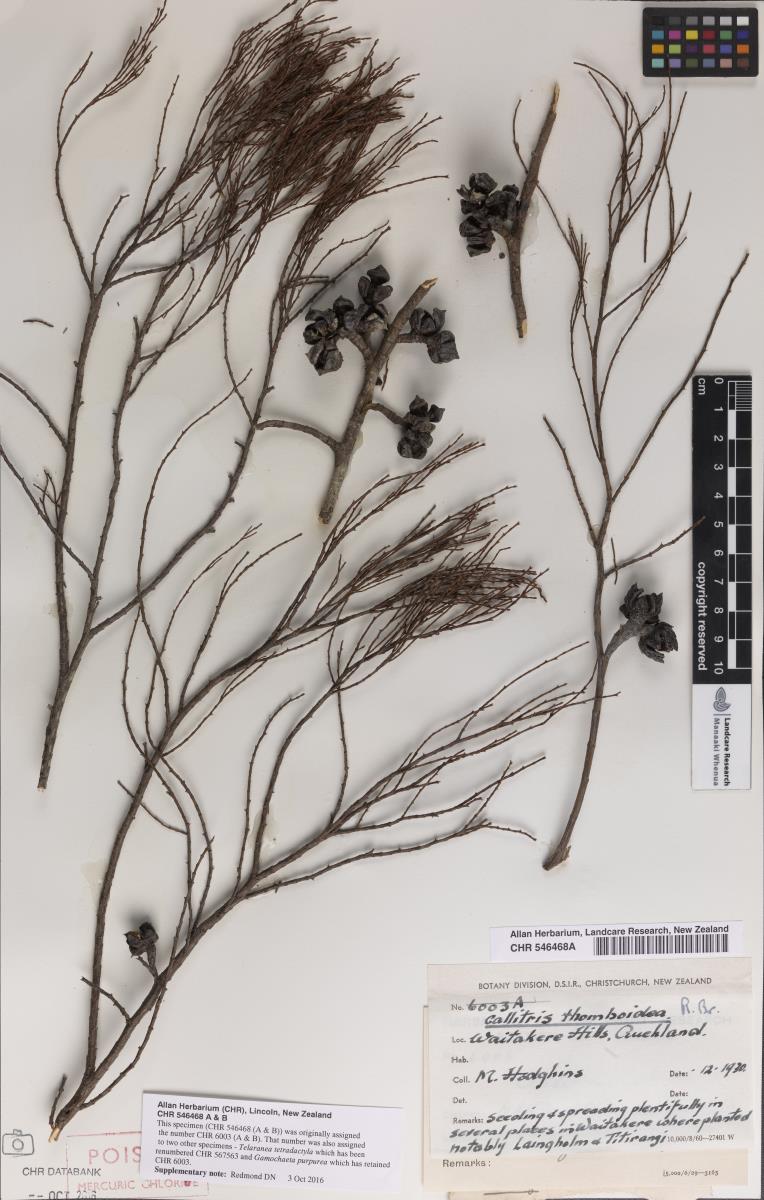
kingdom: Plantae
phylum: Tracheophyta
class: Pinopsida
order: Pinales
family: Cupressaceae
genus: Callitris
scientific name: Callitris rhomboidea
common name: Illawara mountain pine
